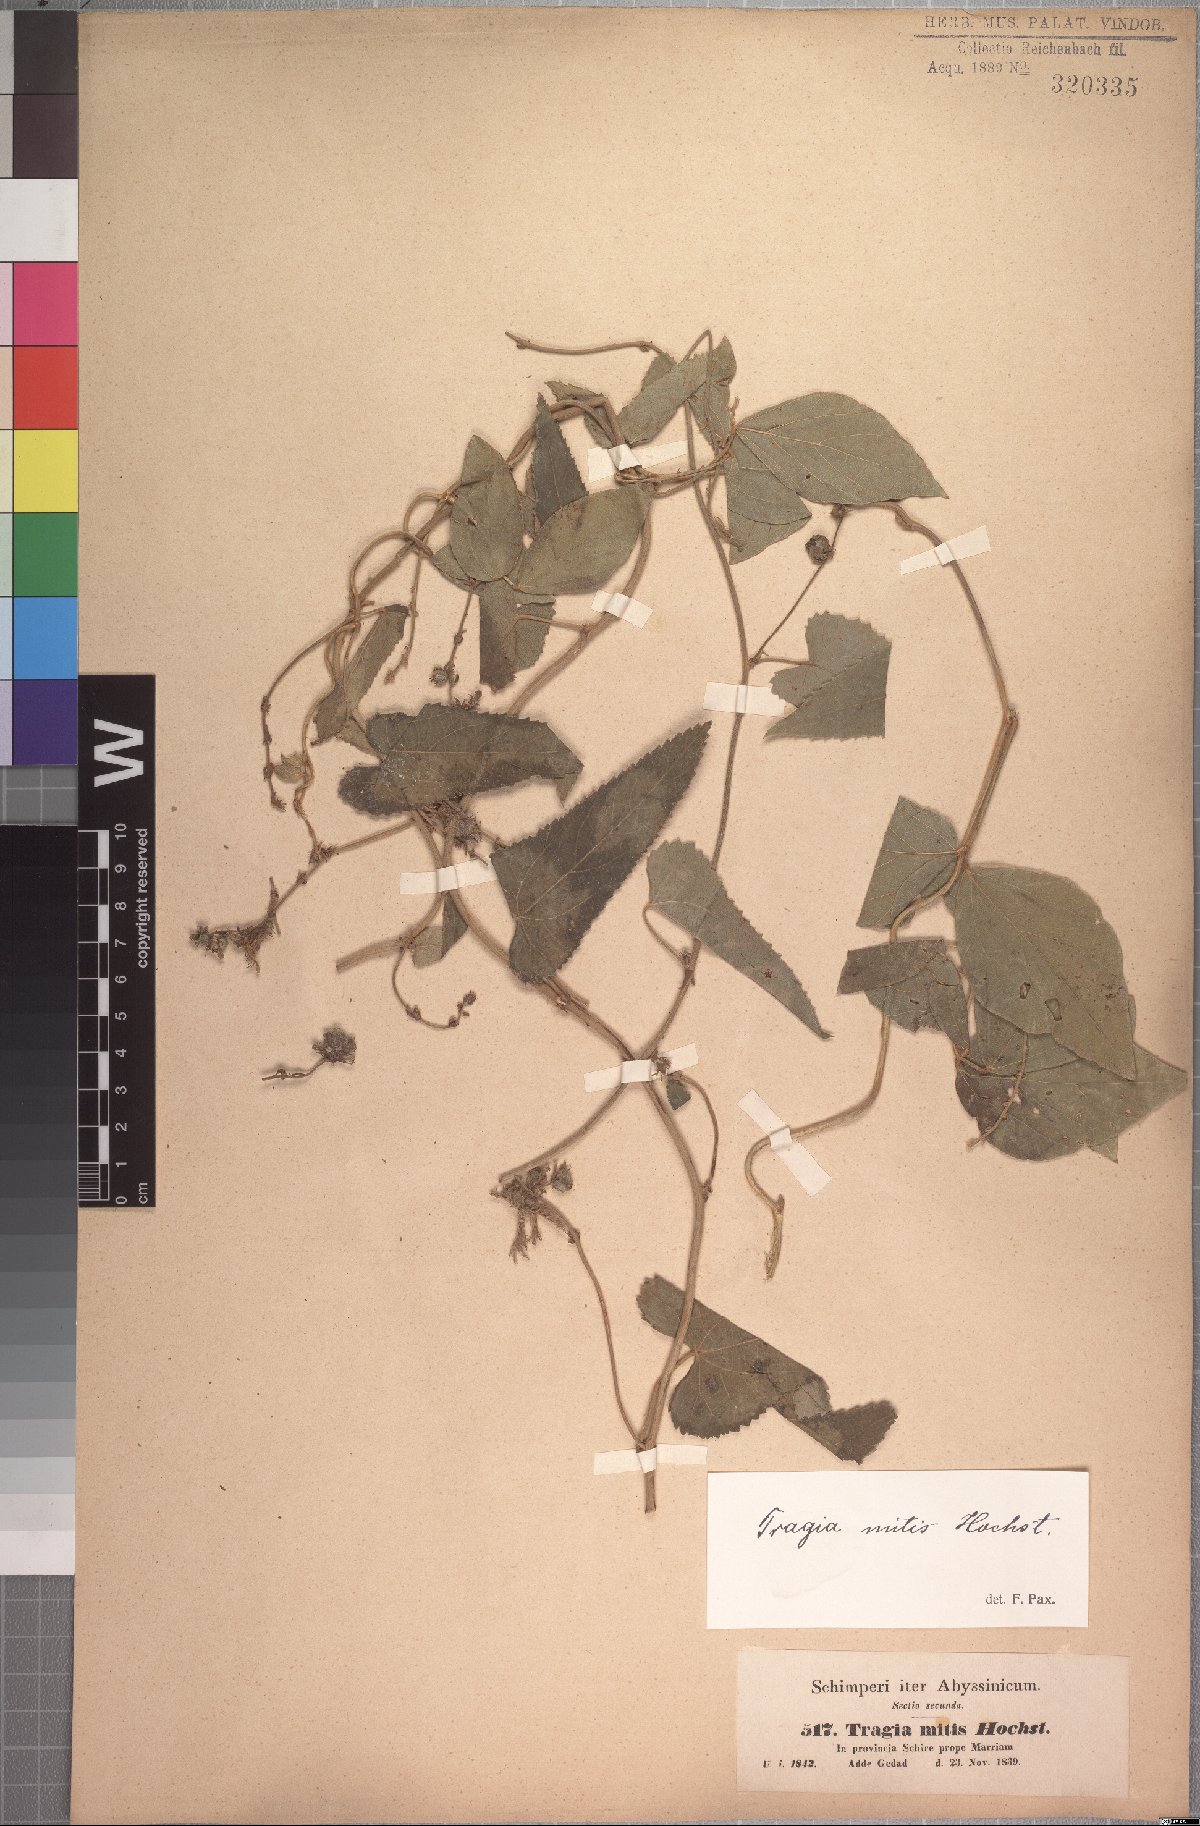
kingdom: Plantae
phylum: Tracheophyta
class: Magnoliopsida
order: Malpighiales
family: Euphorbiaceae
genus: Tragia
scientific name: Tragia mitis
